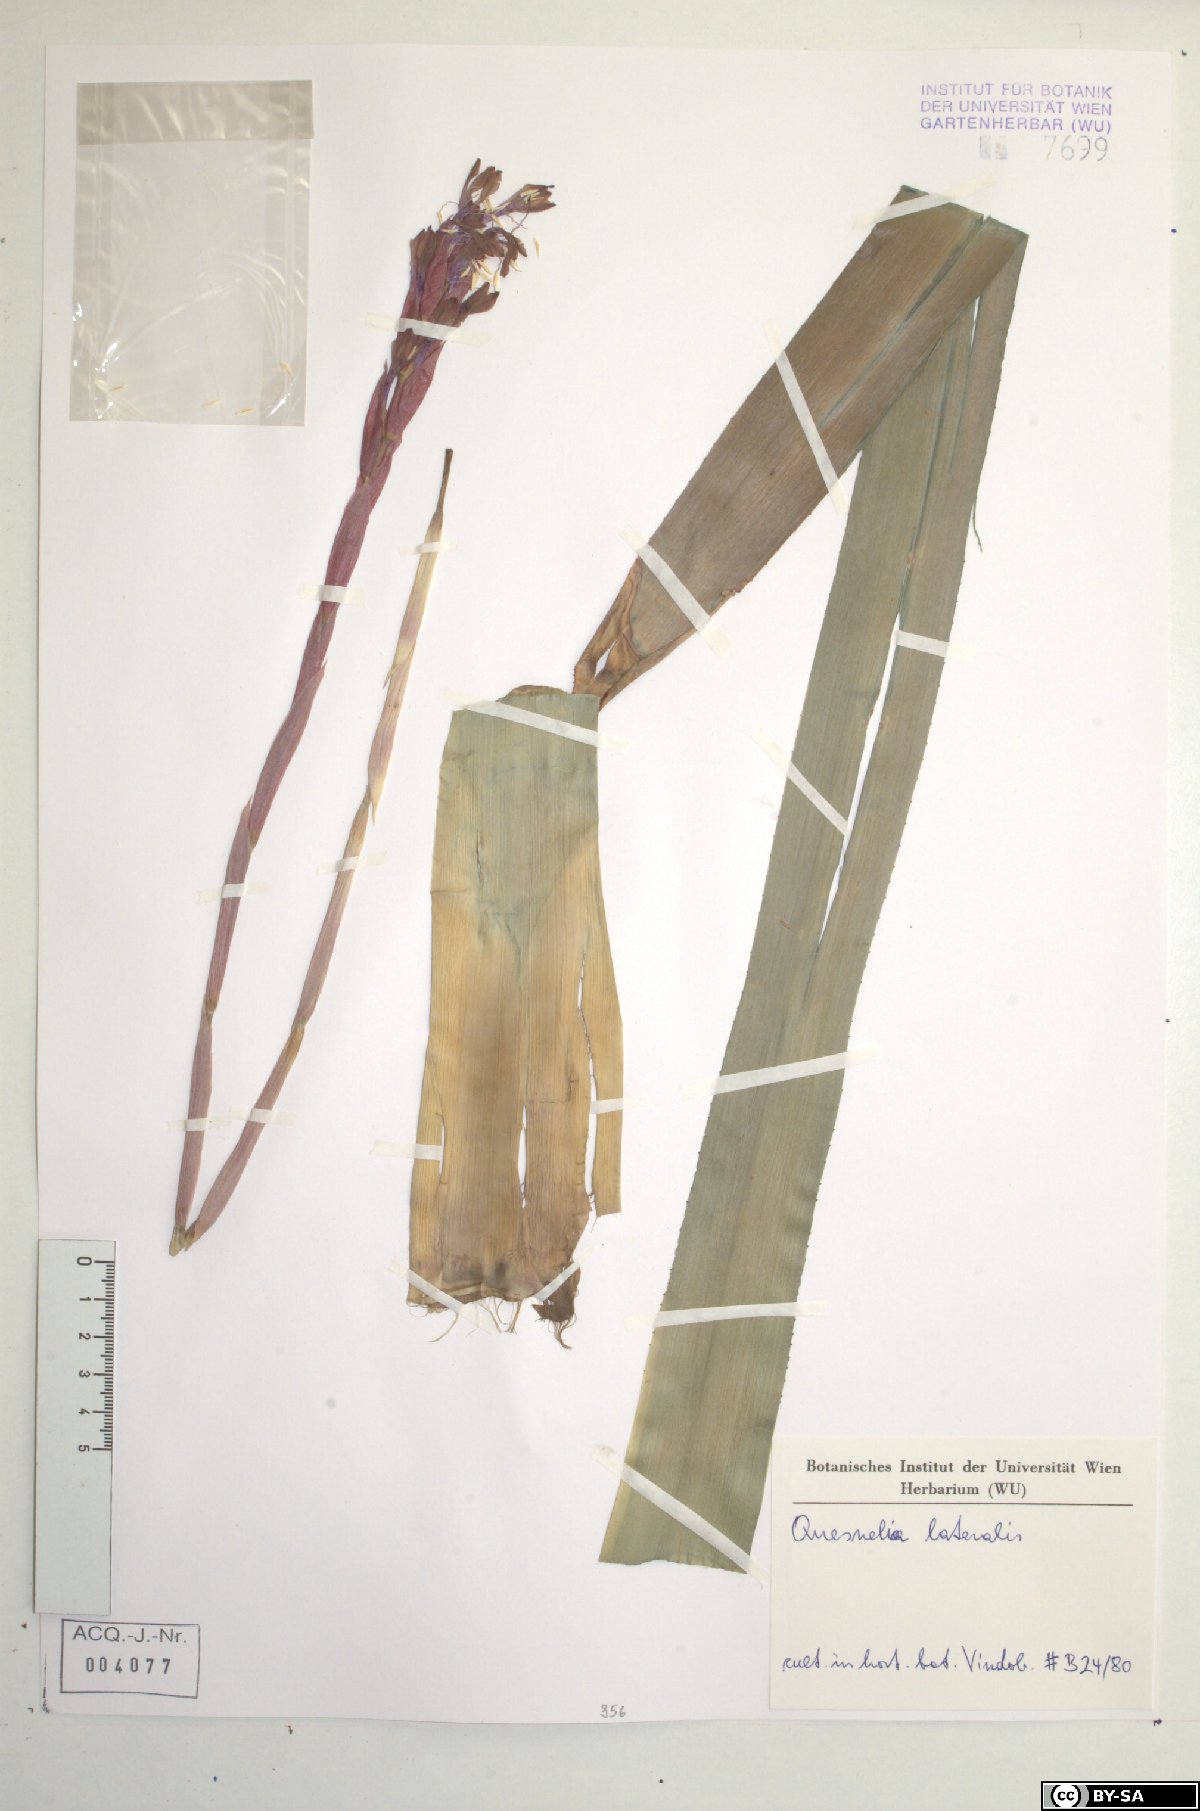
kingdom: Plantae
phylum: Tracheophyta
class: Liliopsida
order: Poales
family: Bromeliaceae
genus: Quesnelia
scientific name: Quesnelia lateralis
